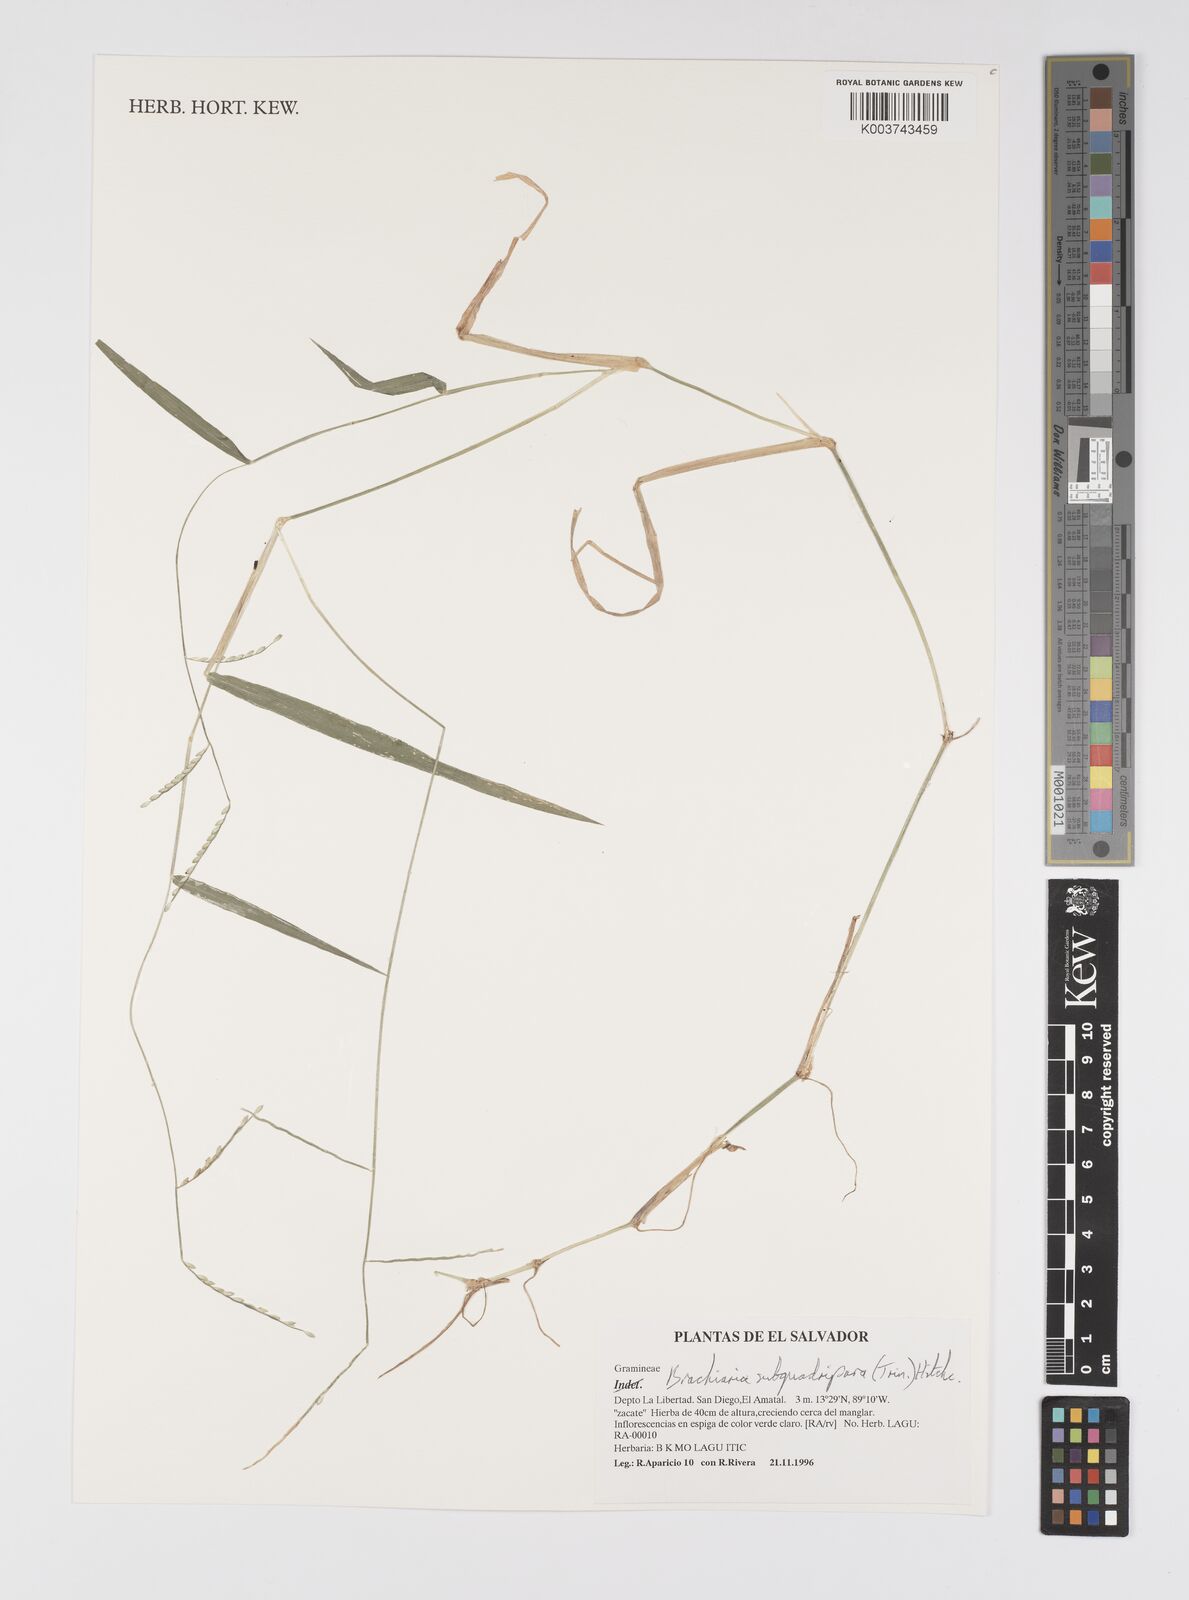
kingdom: Plantae
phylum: Tracheophyta
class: Liliopsida
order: Poales
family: Poaceae
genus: Urochloa
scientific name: Urochloa subquadripara
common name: Armgrass millet
